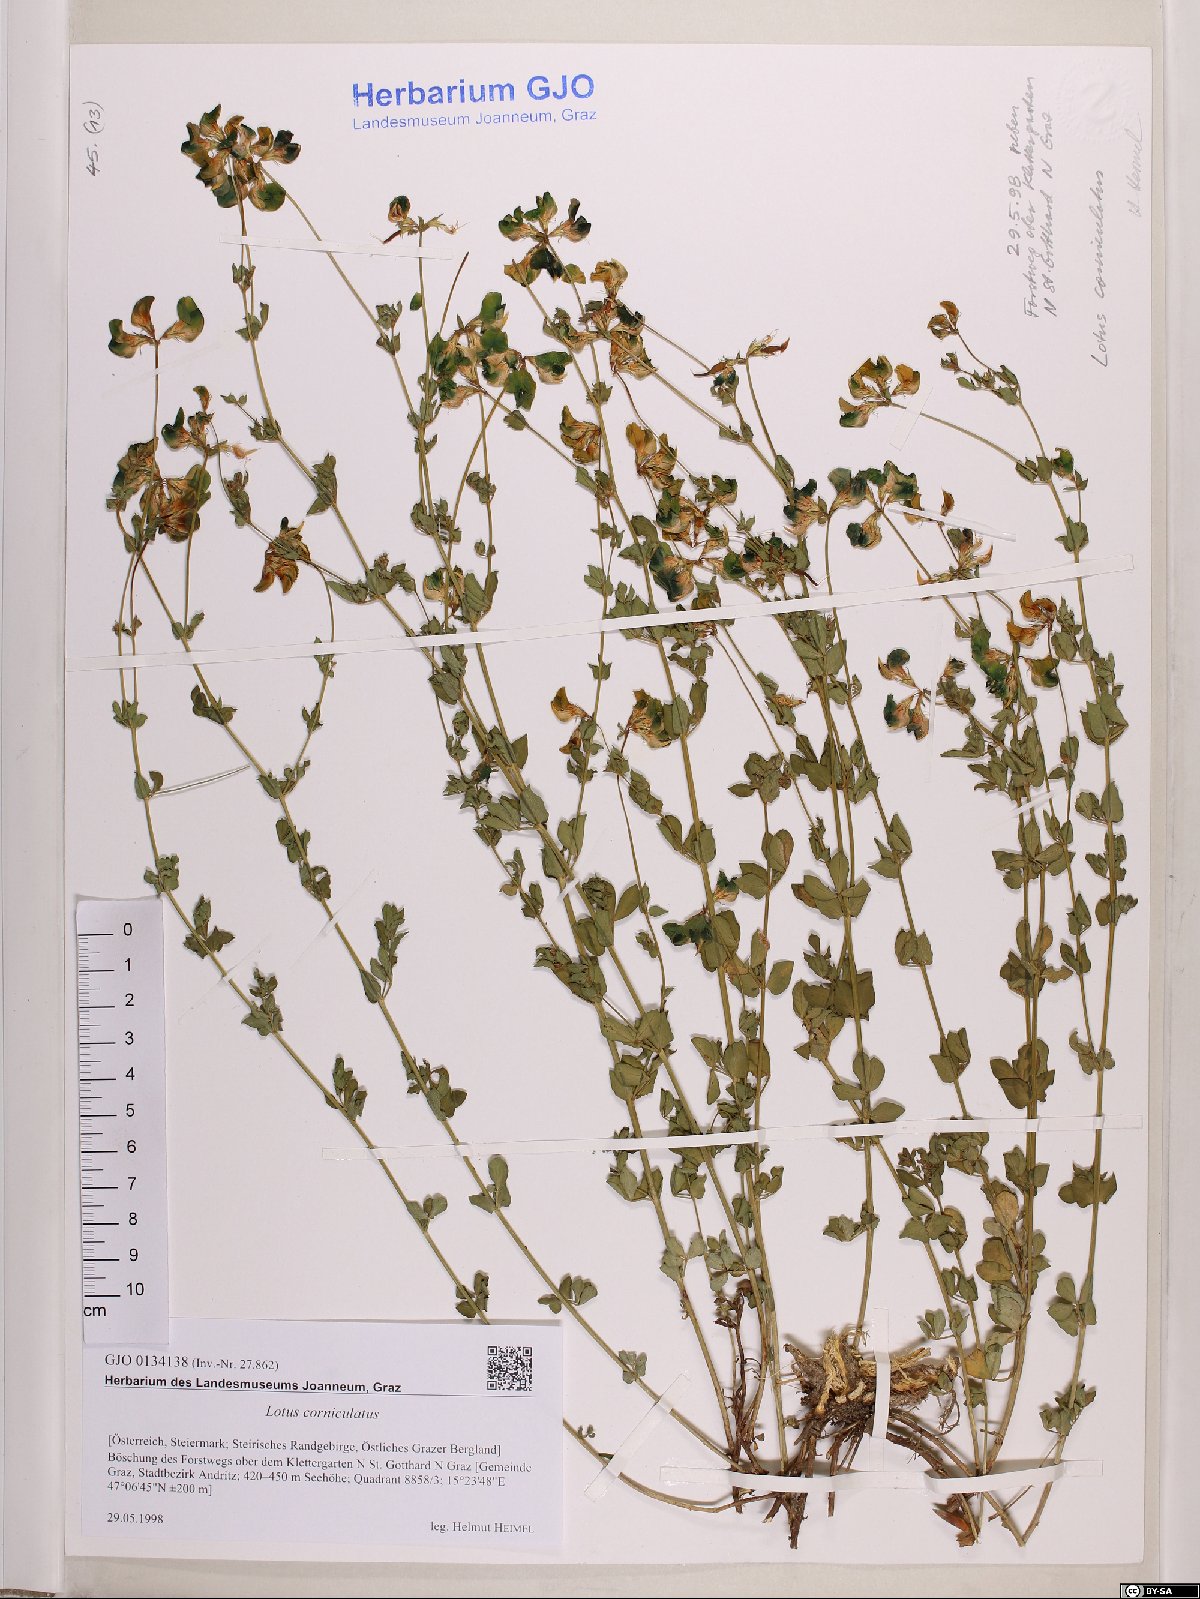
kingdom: Plantae
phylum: Tracheophyta
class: Magnoliopsida
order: Fabales
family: Fabaceae
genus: Lotus
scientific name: Lotus corniculatus
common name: Common bird's-foot-trefoil
